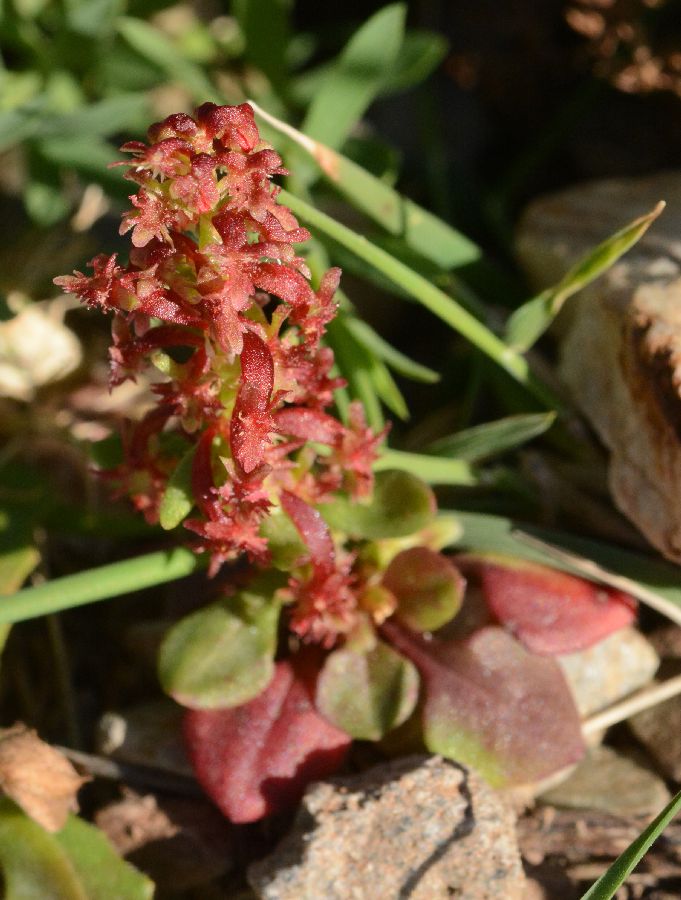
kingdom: Plantae
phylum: Tracheophyta
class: Magnoliopsida
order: Caryophyllales
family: Polygonaceae
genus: Rumex
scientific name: Rumex bucephalophorus
